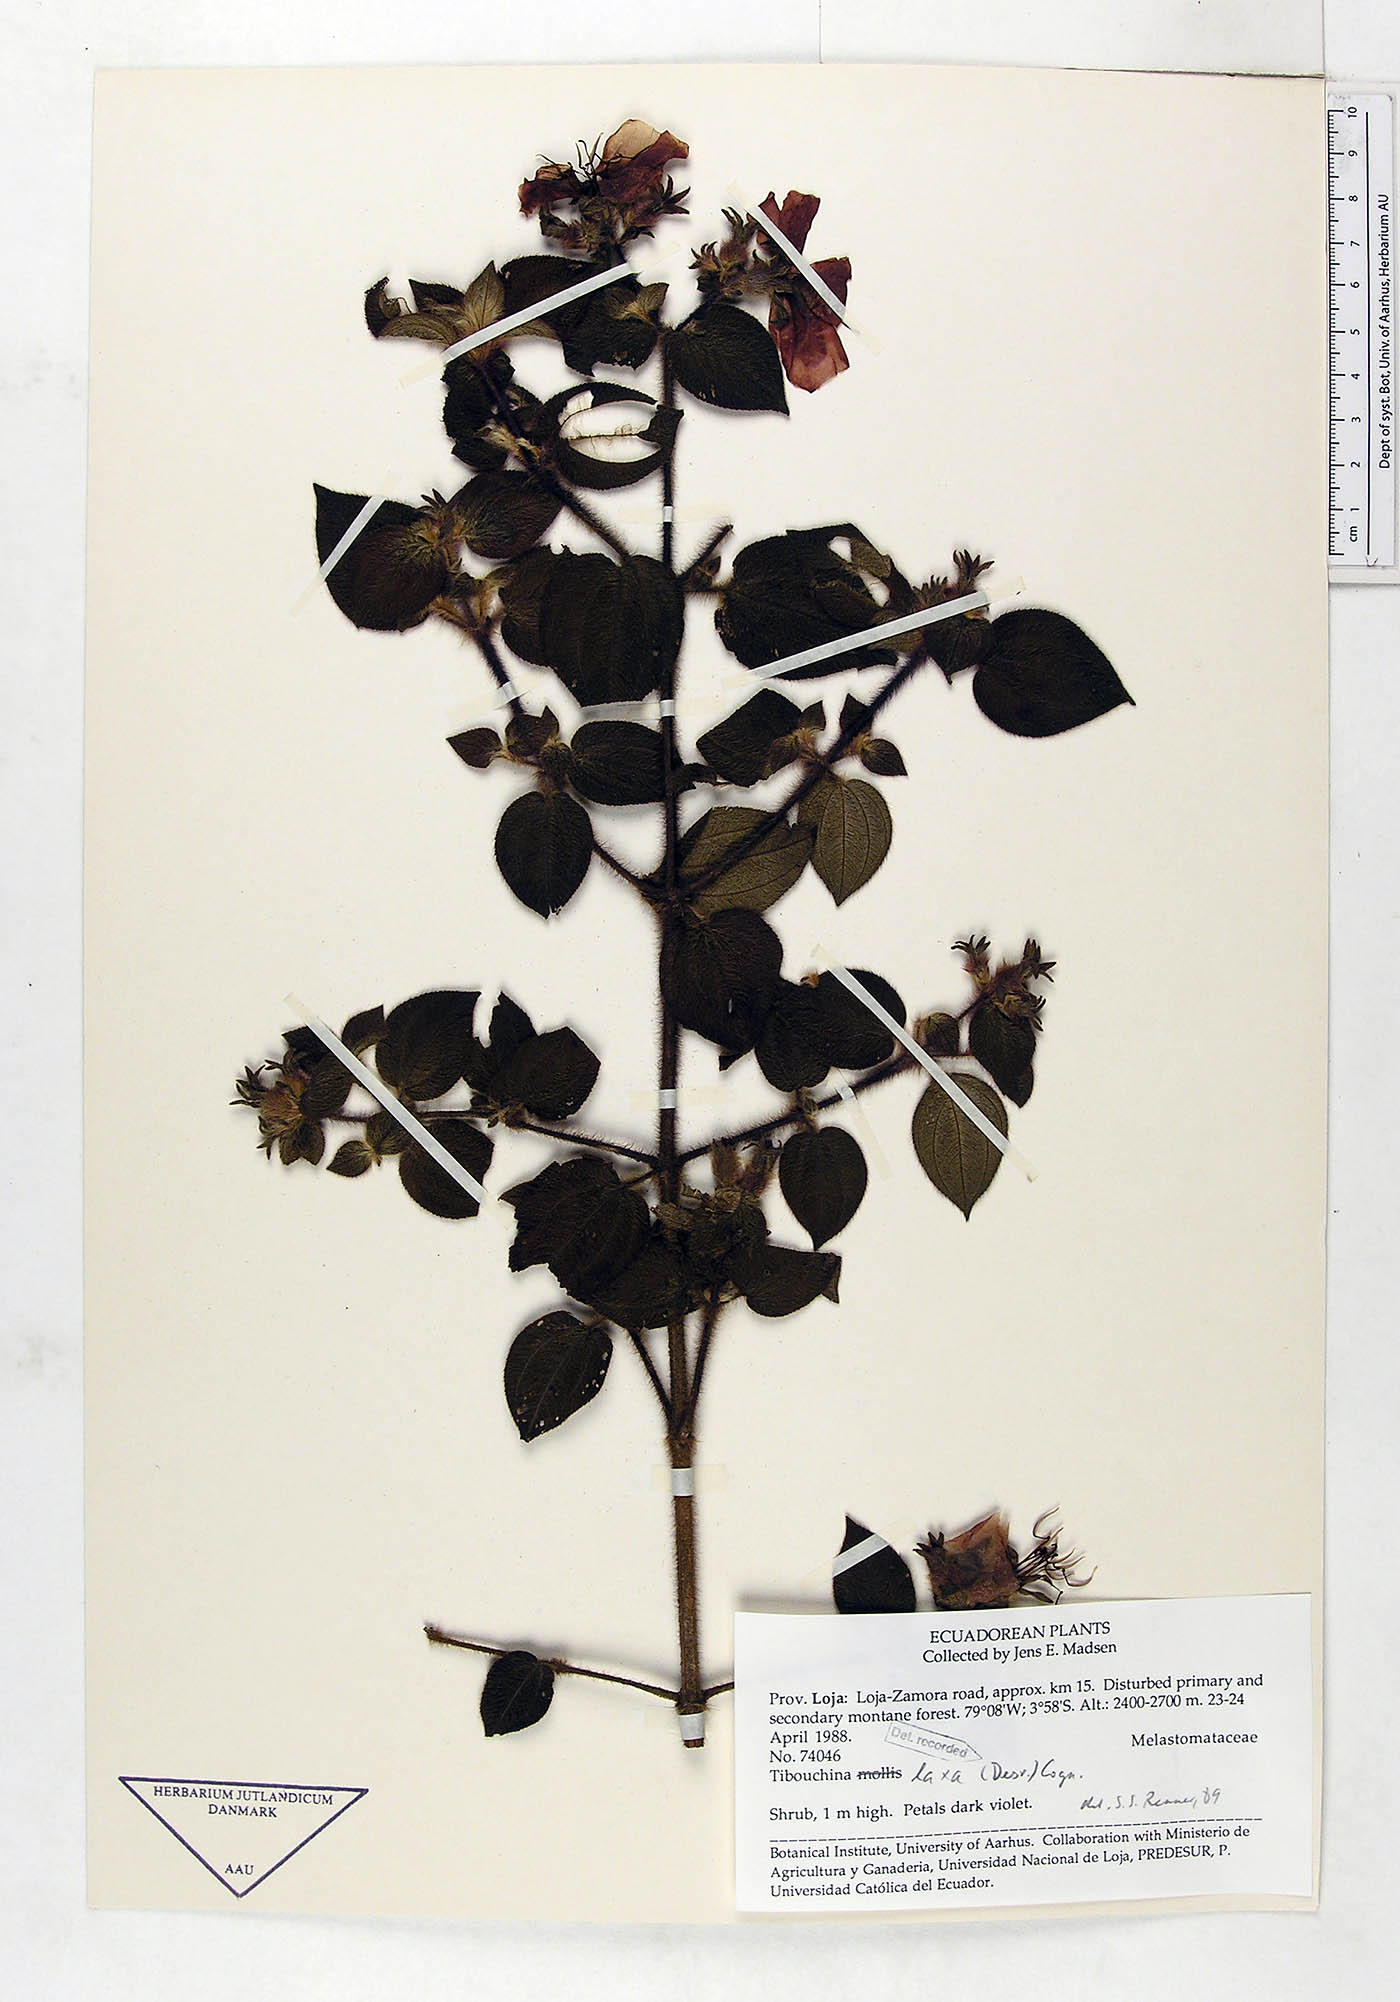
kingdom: Plantae
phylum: Tracheophyta
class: Magnoliopsida
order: Myrtales
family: Melastomataceae
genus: Chaetogastra
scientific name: Chaetogastra laxa
